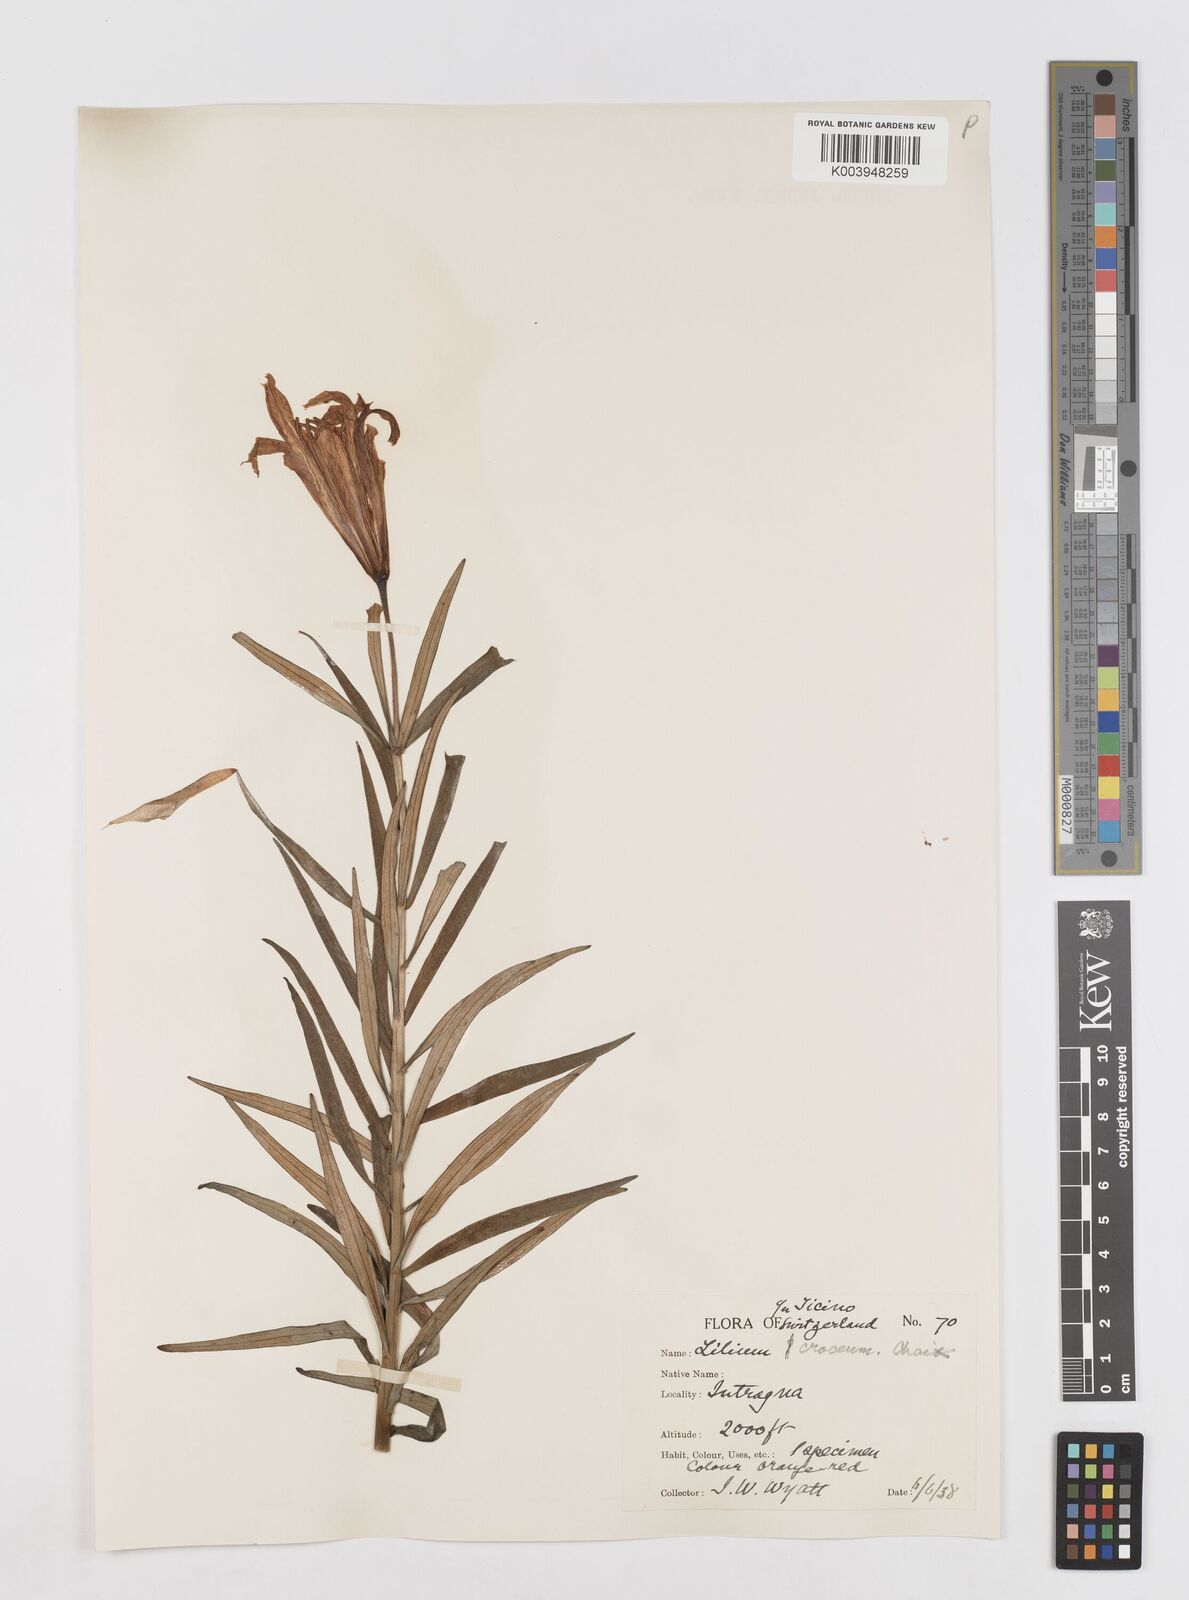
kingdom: Plantae
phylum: Tracheophyta
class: Liliopsida
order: Liliales
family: Liliaceae
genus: Lilium
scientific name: Lilium bulbiferum
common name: Orange lily
